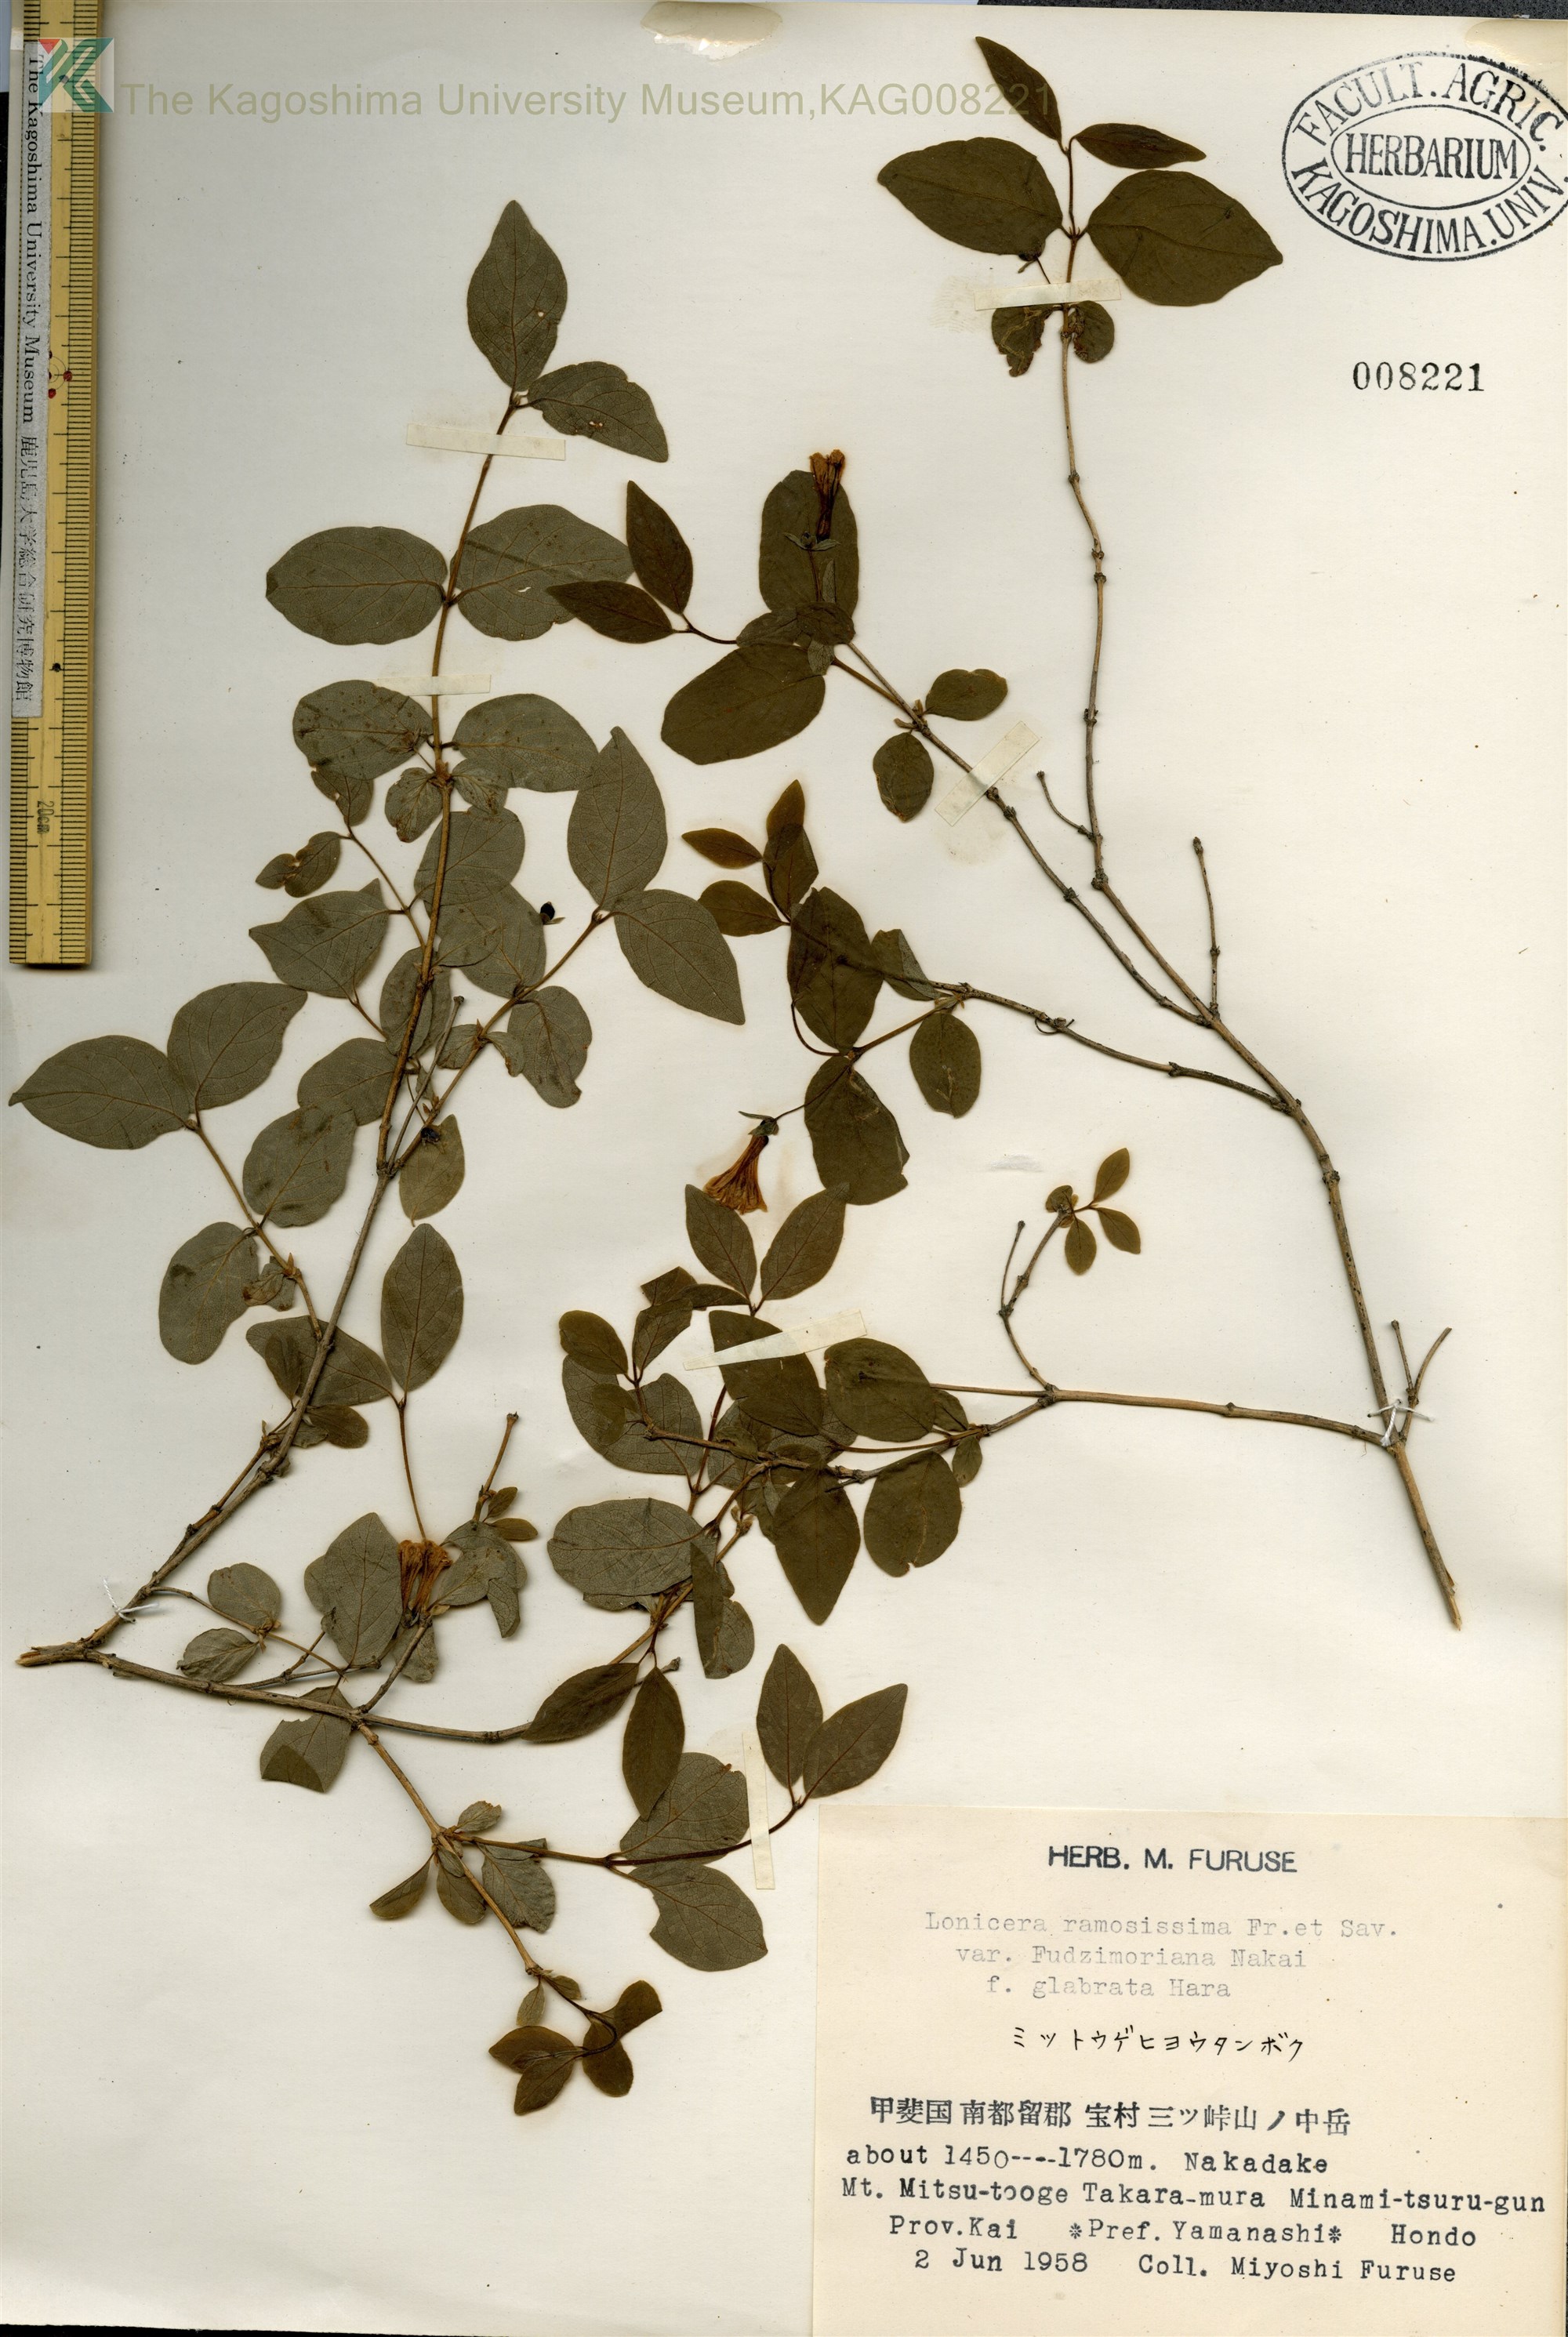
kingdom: Plantae
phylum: Tracheophyta
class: Magnoliopsida
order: Dipsacales
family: Caprifoliaceae
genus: Lonicera
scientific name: Lonicera ramosissima
